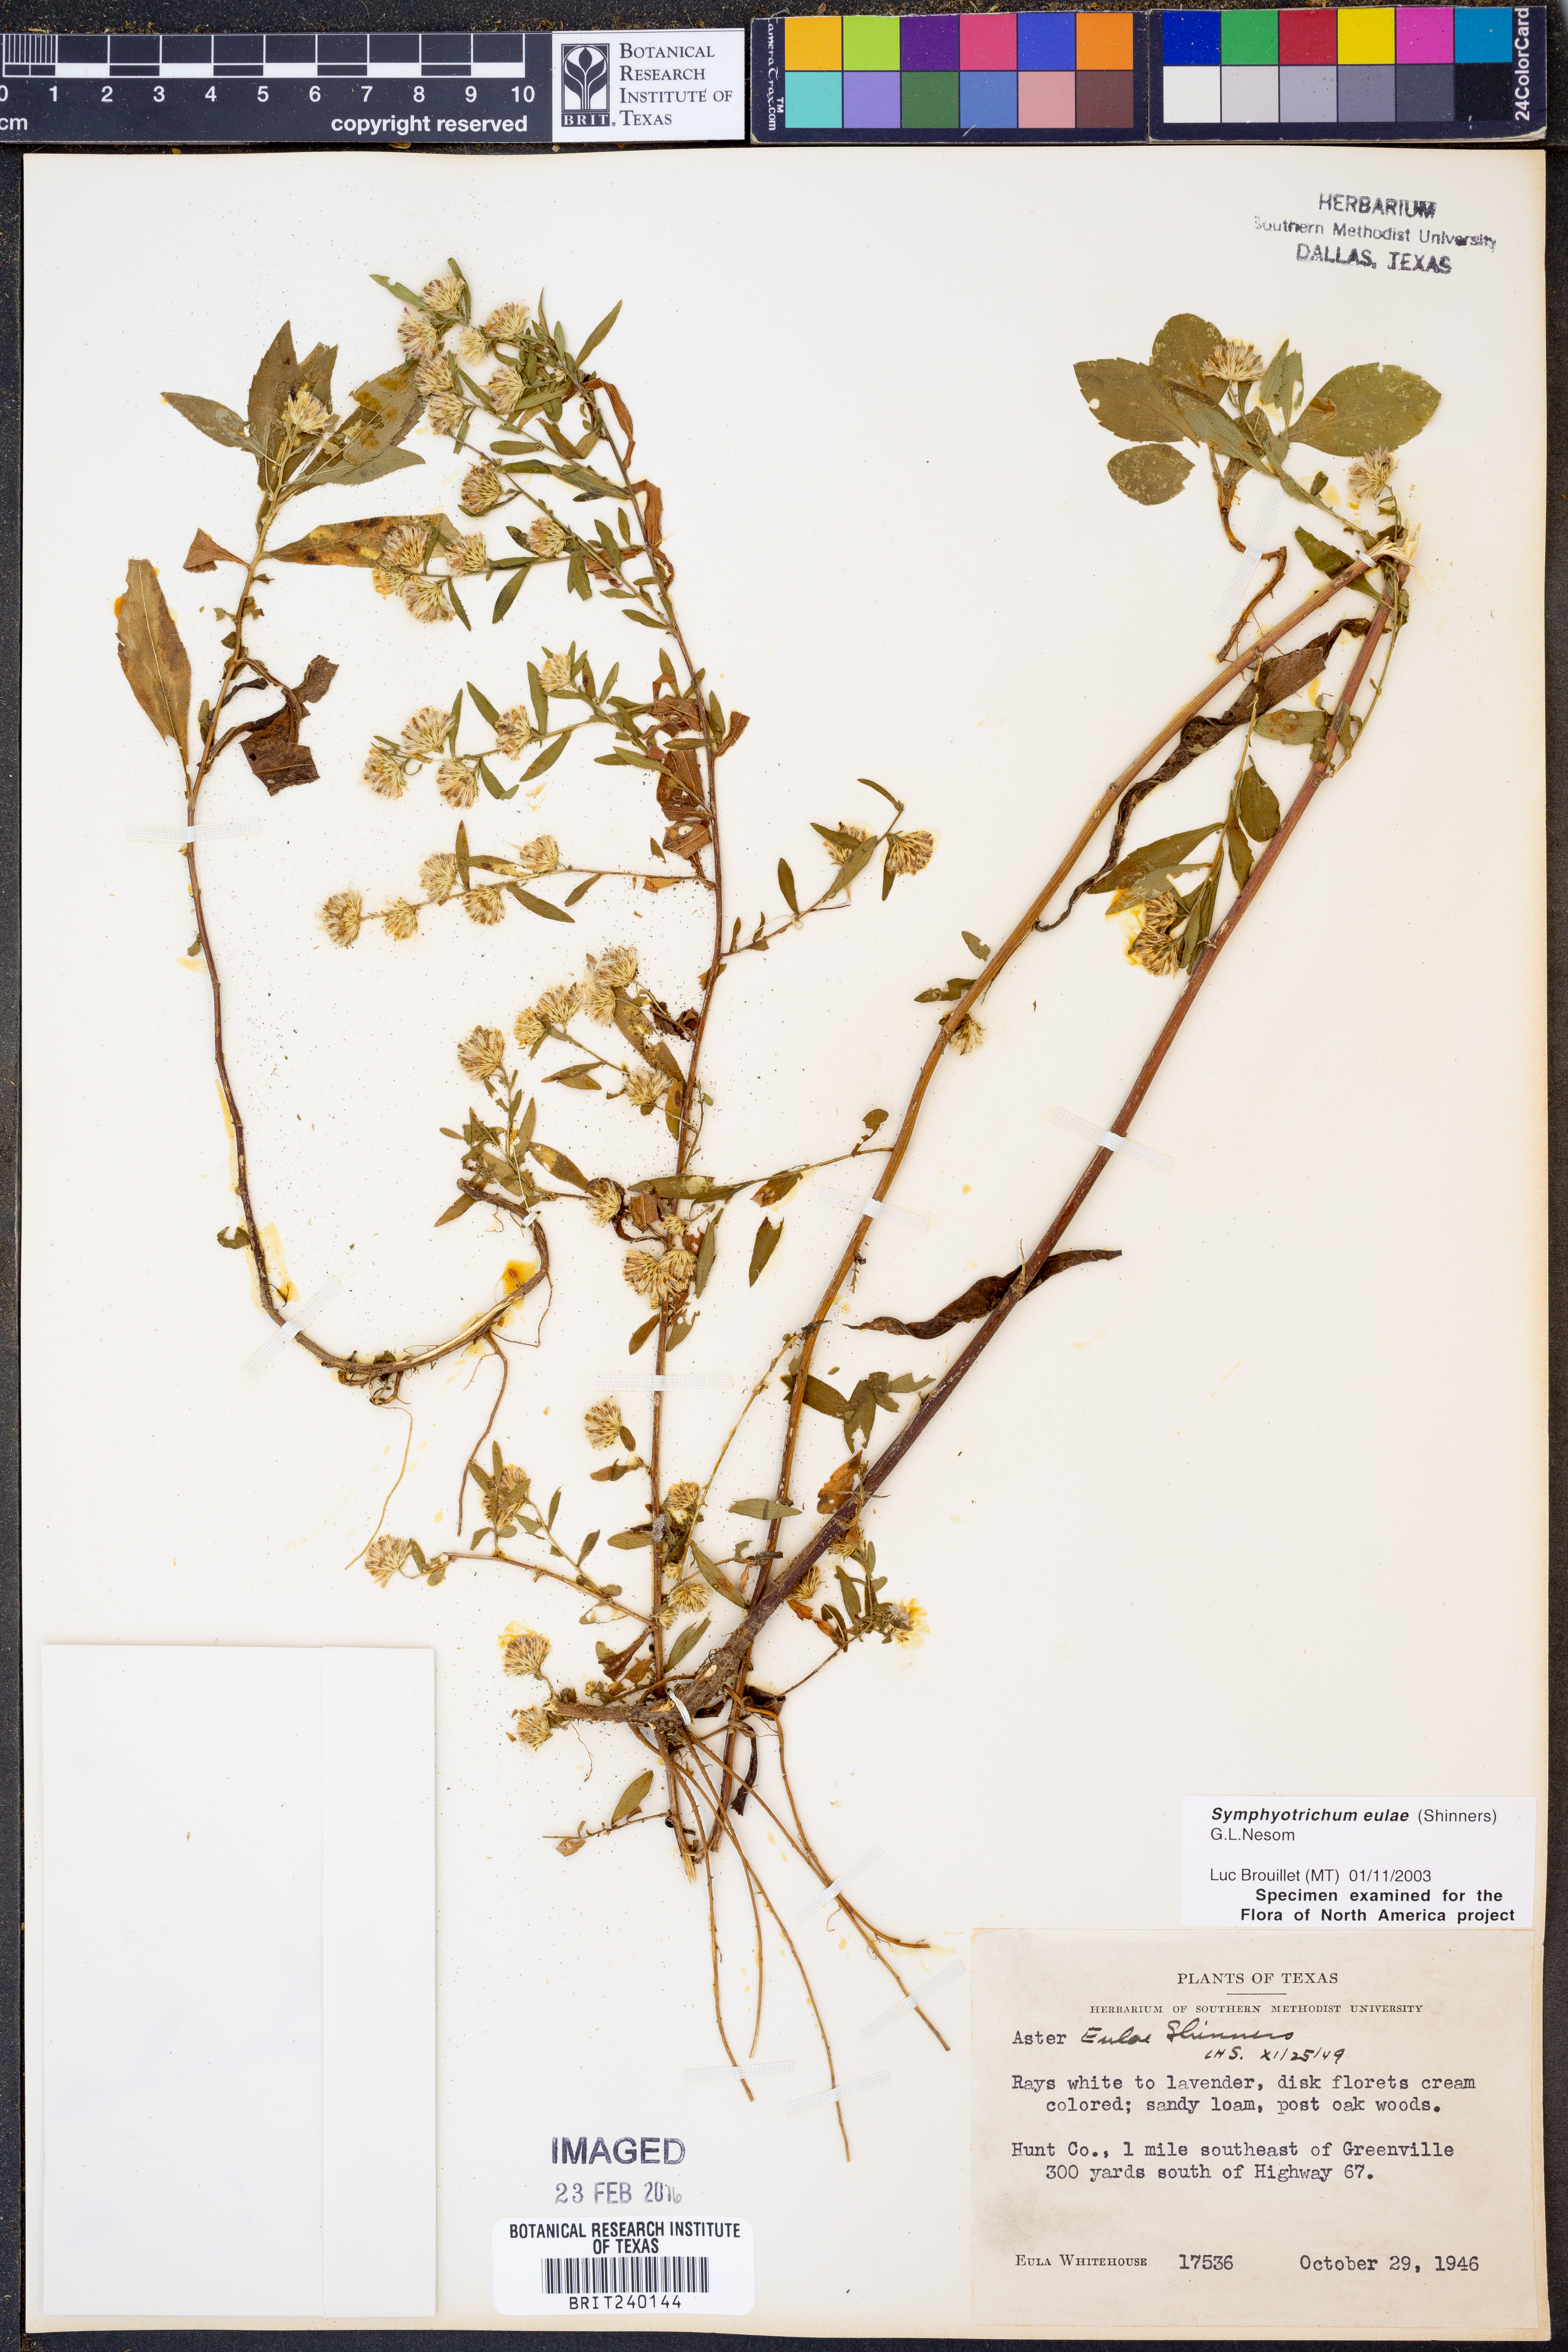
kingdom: Plantae
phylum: Tracheophyta
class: Magnoliopsida
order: Asterales
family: Asteraceae
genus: Symphyotrichum
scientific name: Symphyotrichum eulae
